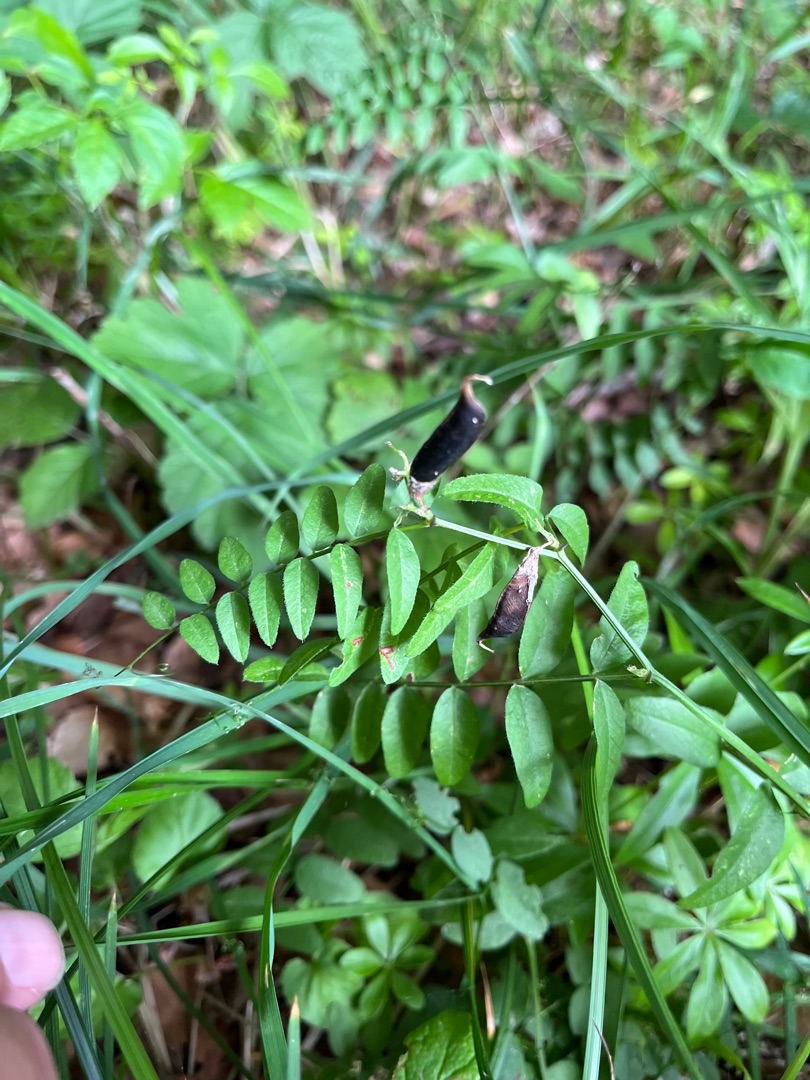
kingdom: Plantae
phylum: Tracheophyta
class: Magnoliopsida
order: Fabales
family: Fabaceae
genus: Vicia
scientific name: Vicia sepium
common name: Gærde-vikke
